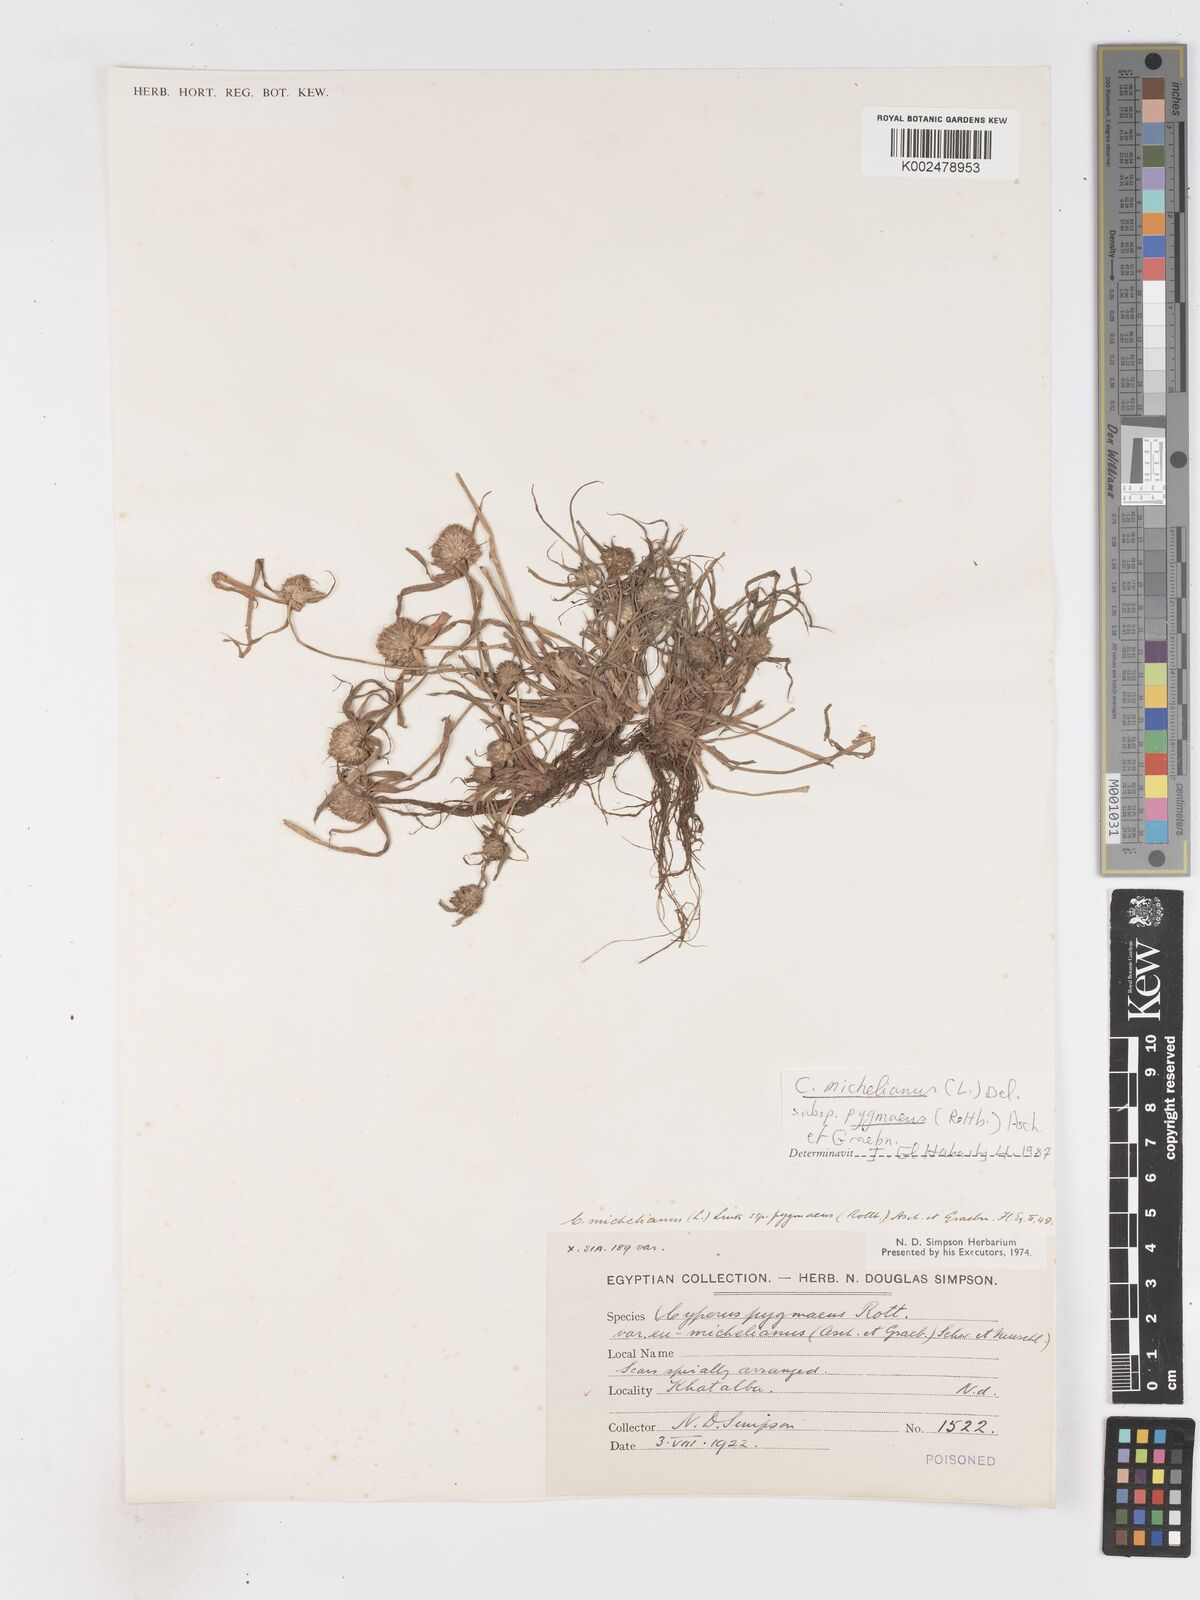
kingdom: Plantae
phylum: Tracheophyta
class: Liliopsida
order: Poales
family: Cyperaceae
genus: Cyperus
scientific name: Cyperus michelianus
